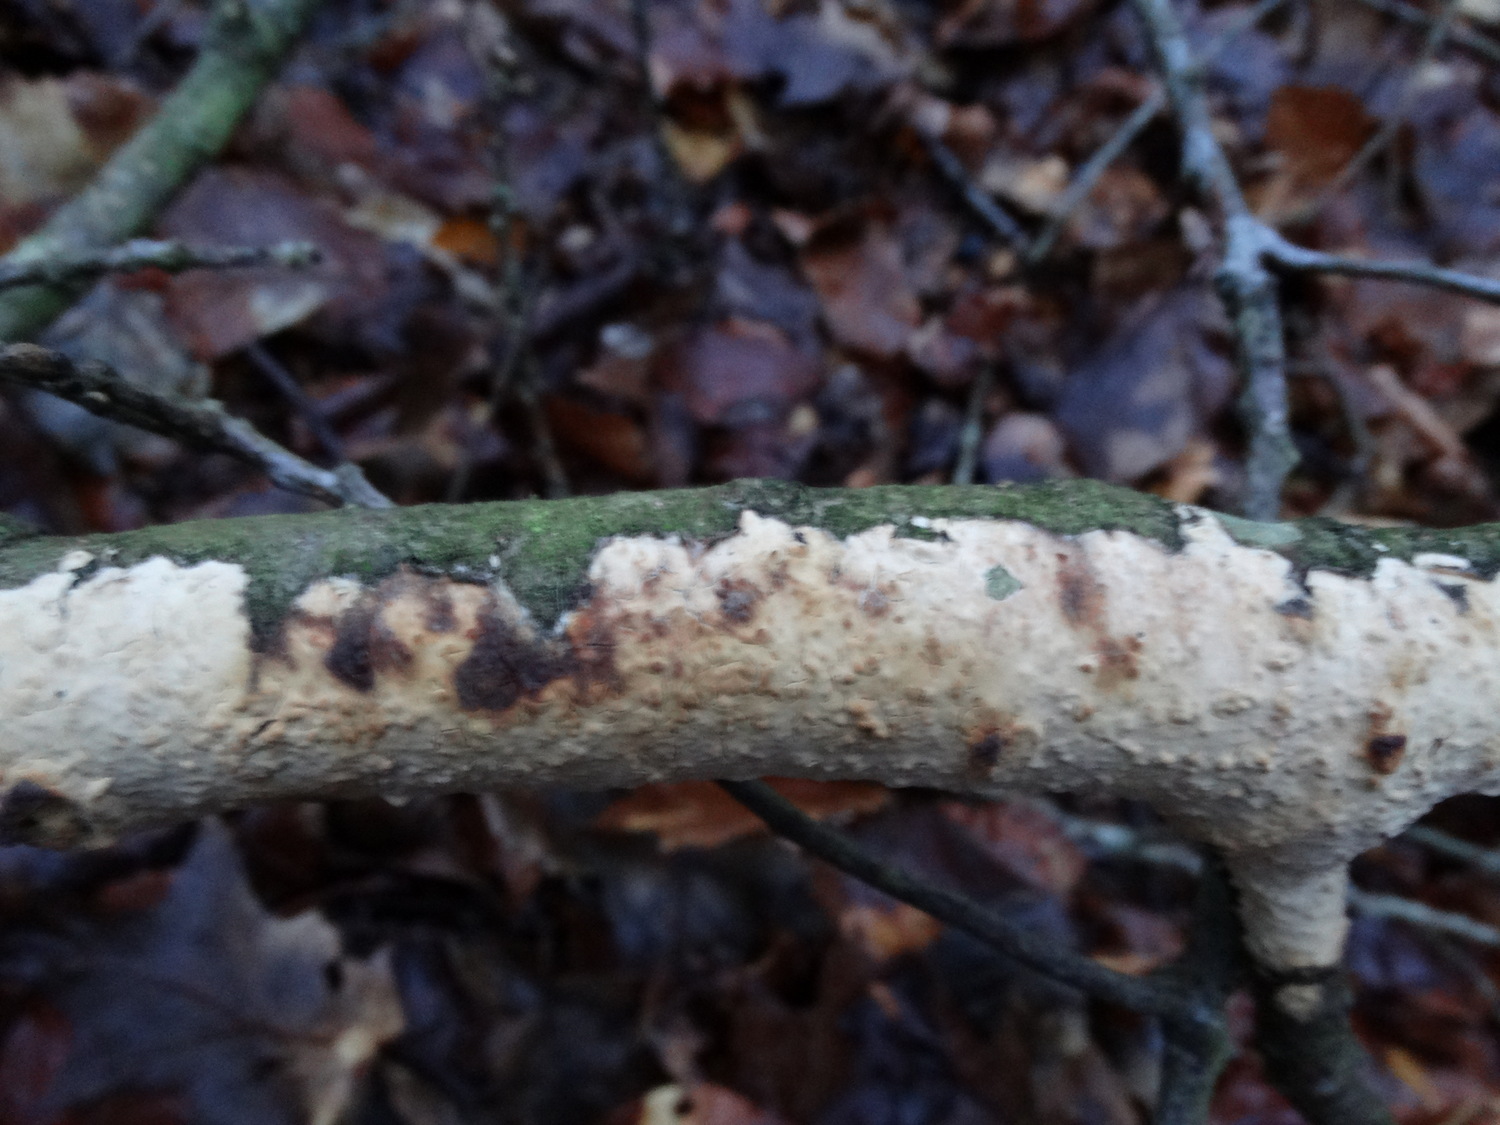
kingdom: Fungi
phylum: Basidiomycota
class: Agaricomycetes
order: Corticiales
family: Corticiaceae
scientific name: Corticiaceae
